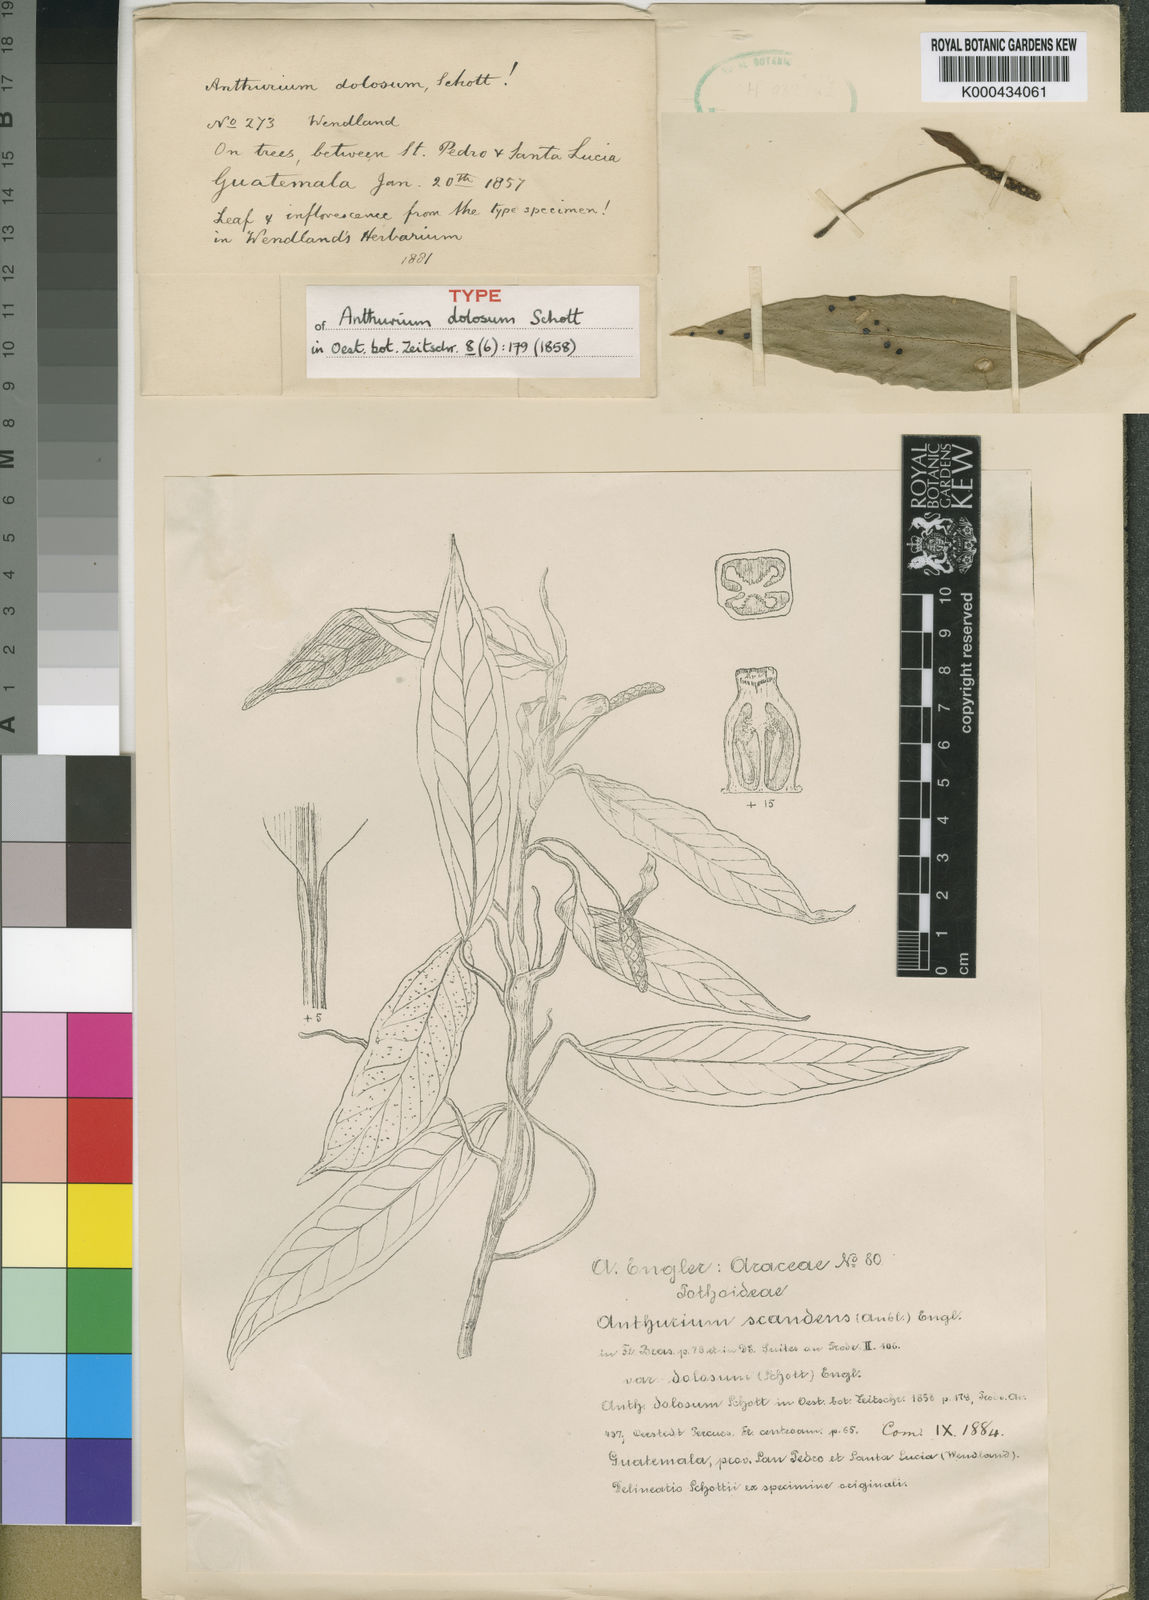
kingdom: Plantae
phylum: Tracheophyta
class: Liliopsida
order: Alismatales
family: Araceae
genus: Anthurium
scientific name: Anthurium scandens
